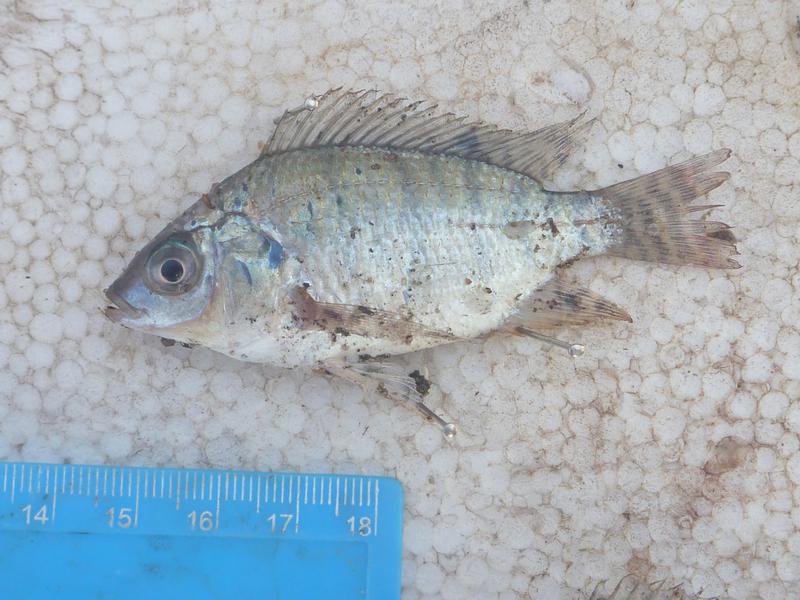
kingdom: Animalia
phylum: Chordata
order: Perciformes
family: Cichlidae
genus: Oreochromis
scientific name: Oreochromis niloticus
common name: Nile tilapia
